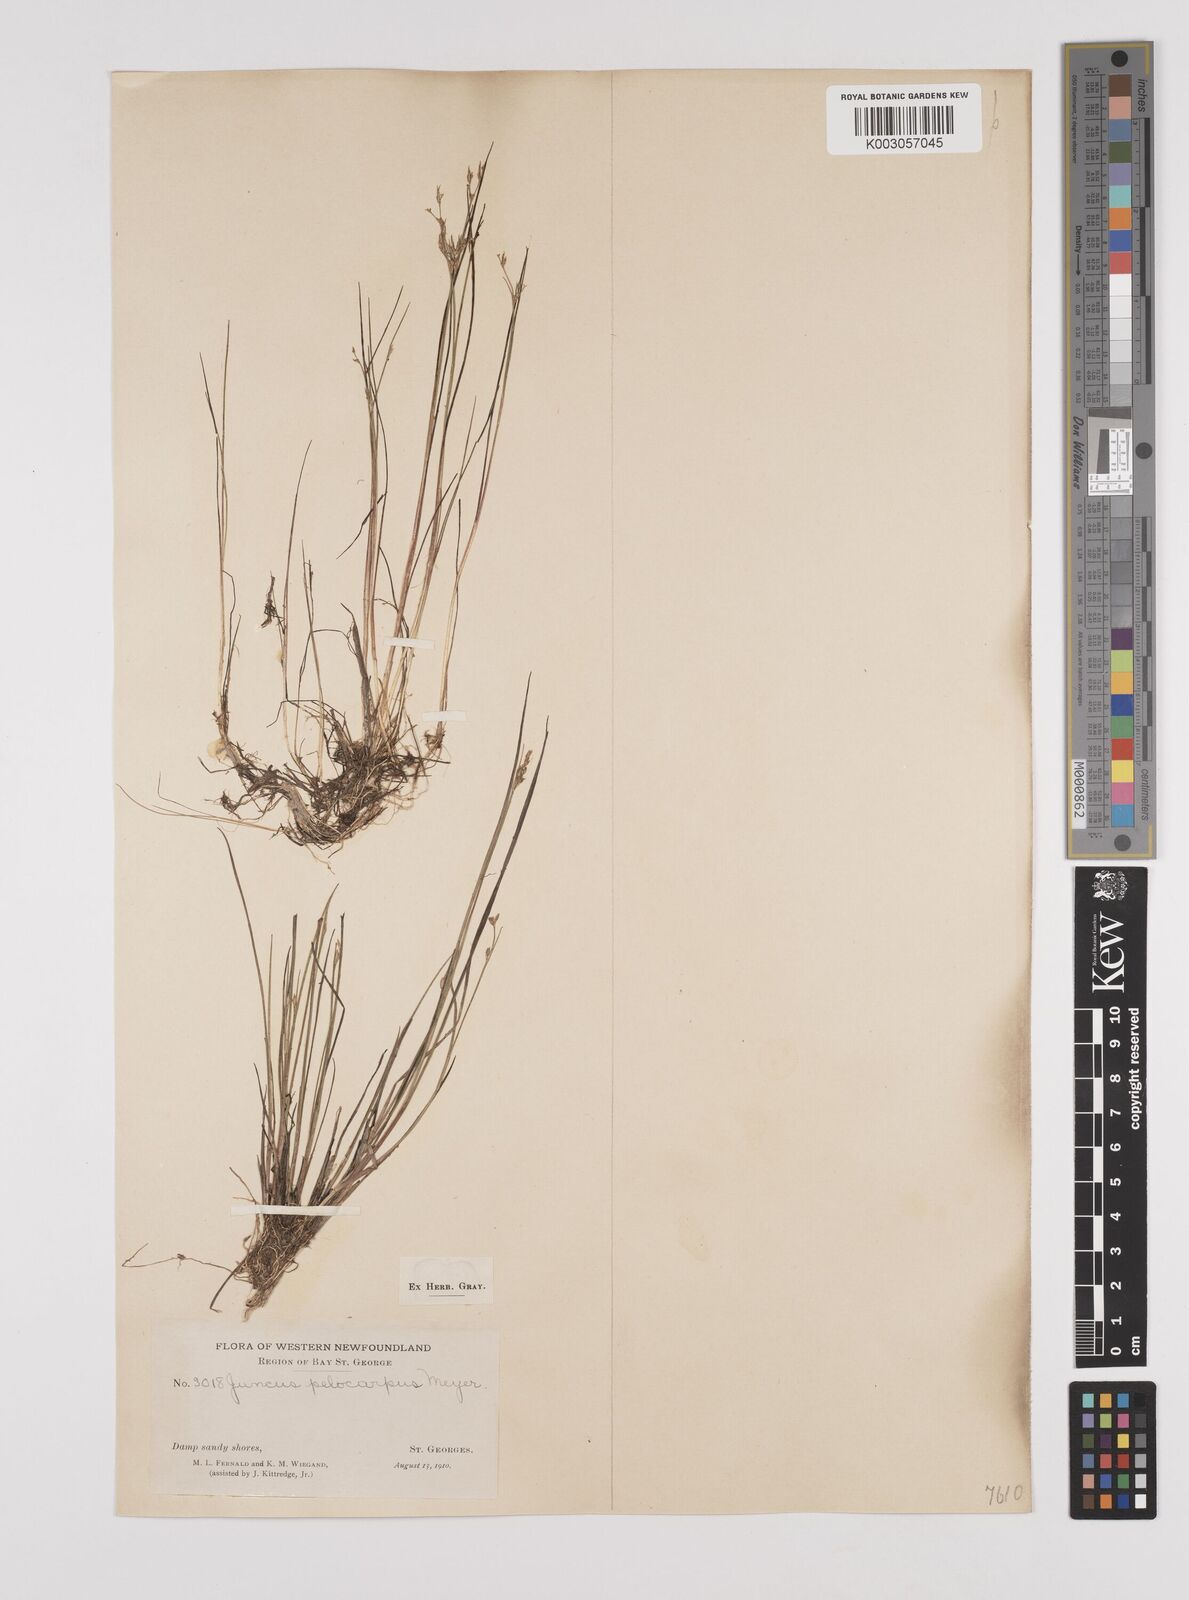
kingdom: Plantae
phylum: Tracheophyta
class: Liliopsida
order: Poales
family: Juncaceae
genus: Juncus
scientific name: Juncus pelocarpus
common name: Brown-fruited rush
